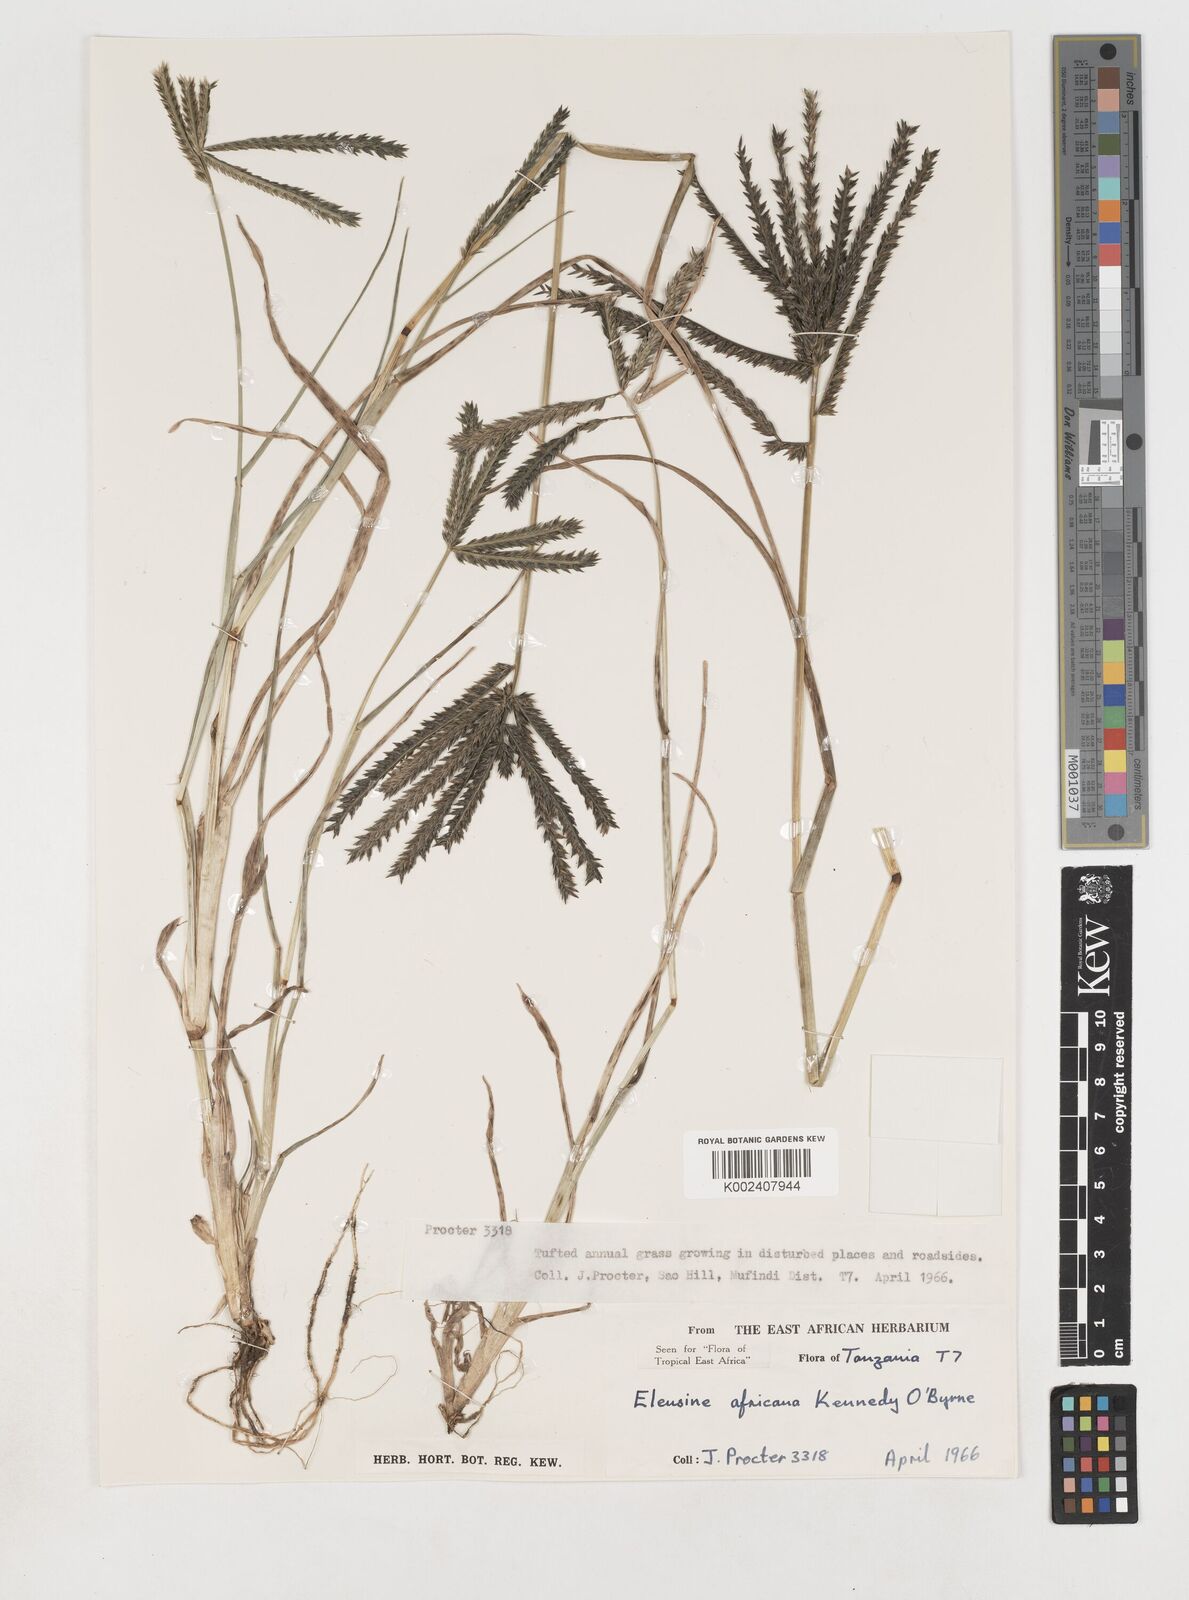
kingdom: Plantae
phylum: Tracheophyta
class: Liliopsida
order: Poales
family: Poaceae
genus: Eleusine
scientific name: Eleusine africana
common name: Wild african finger millet
